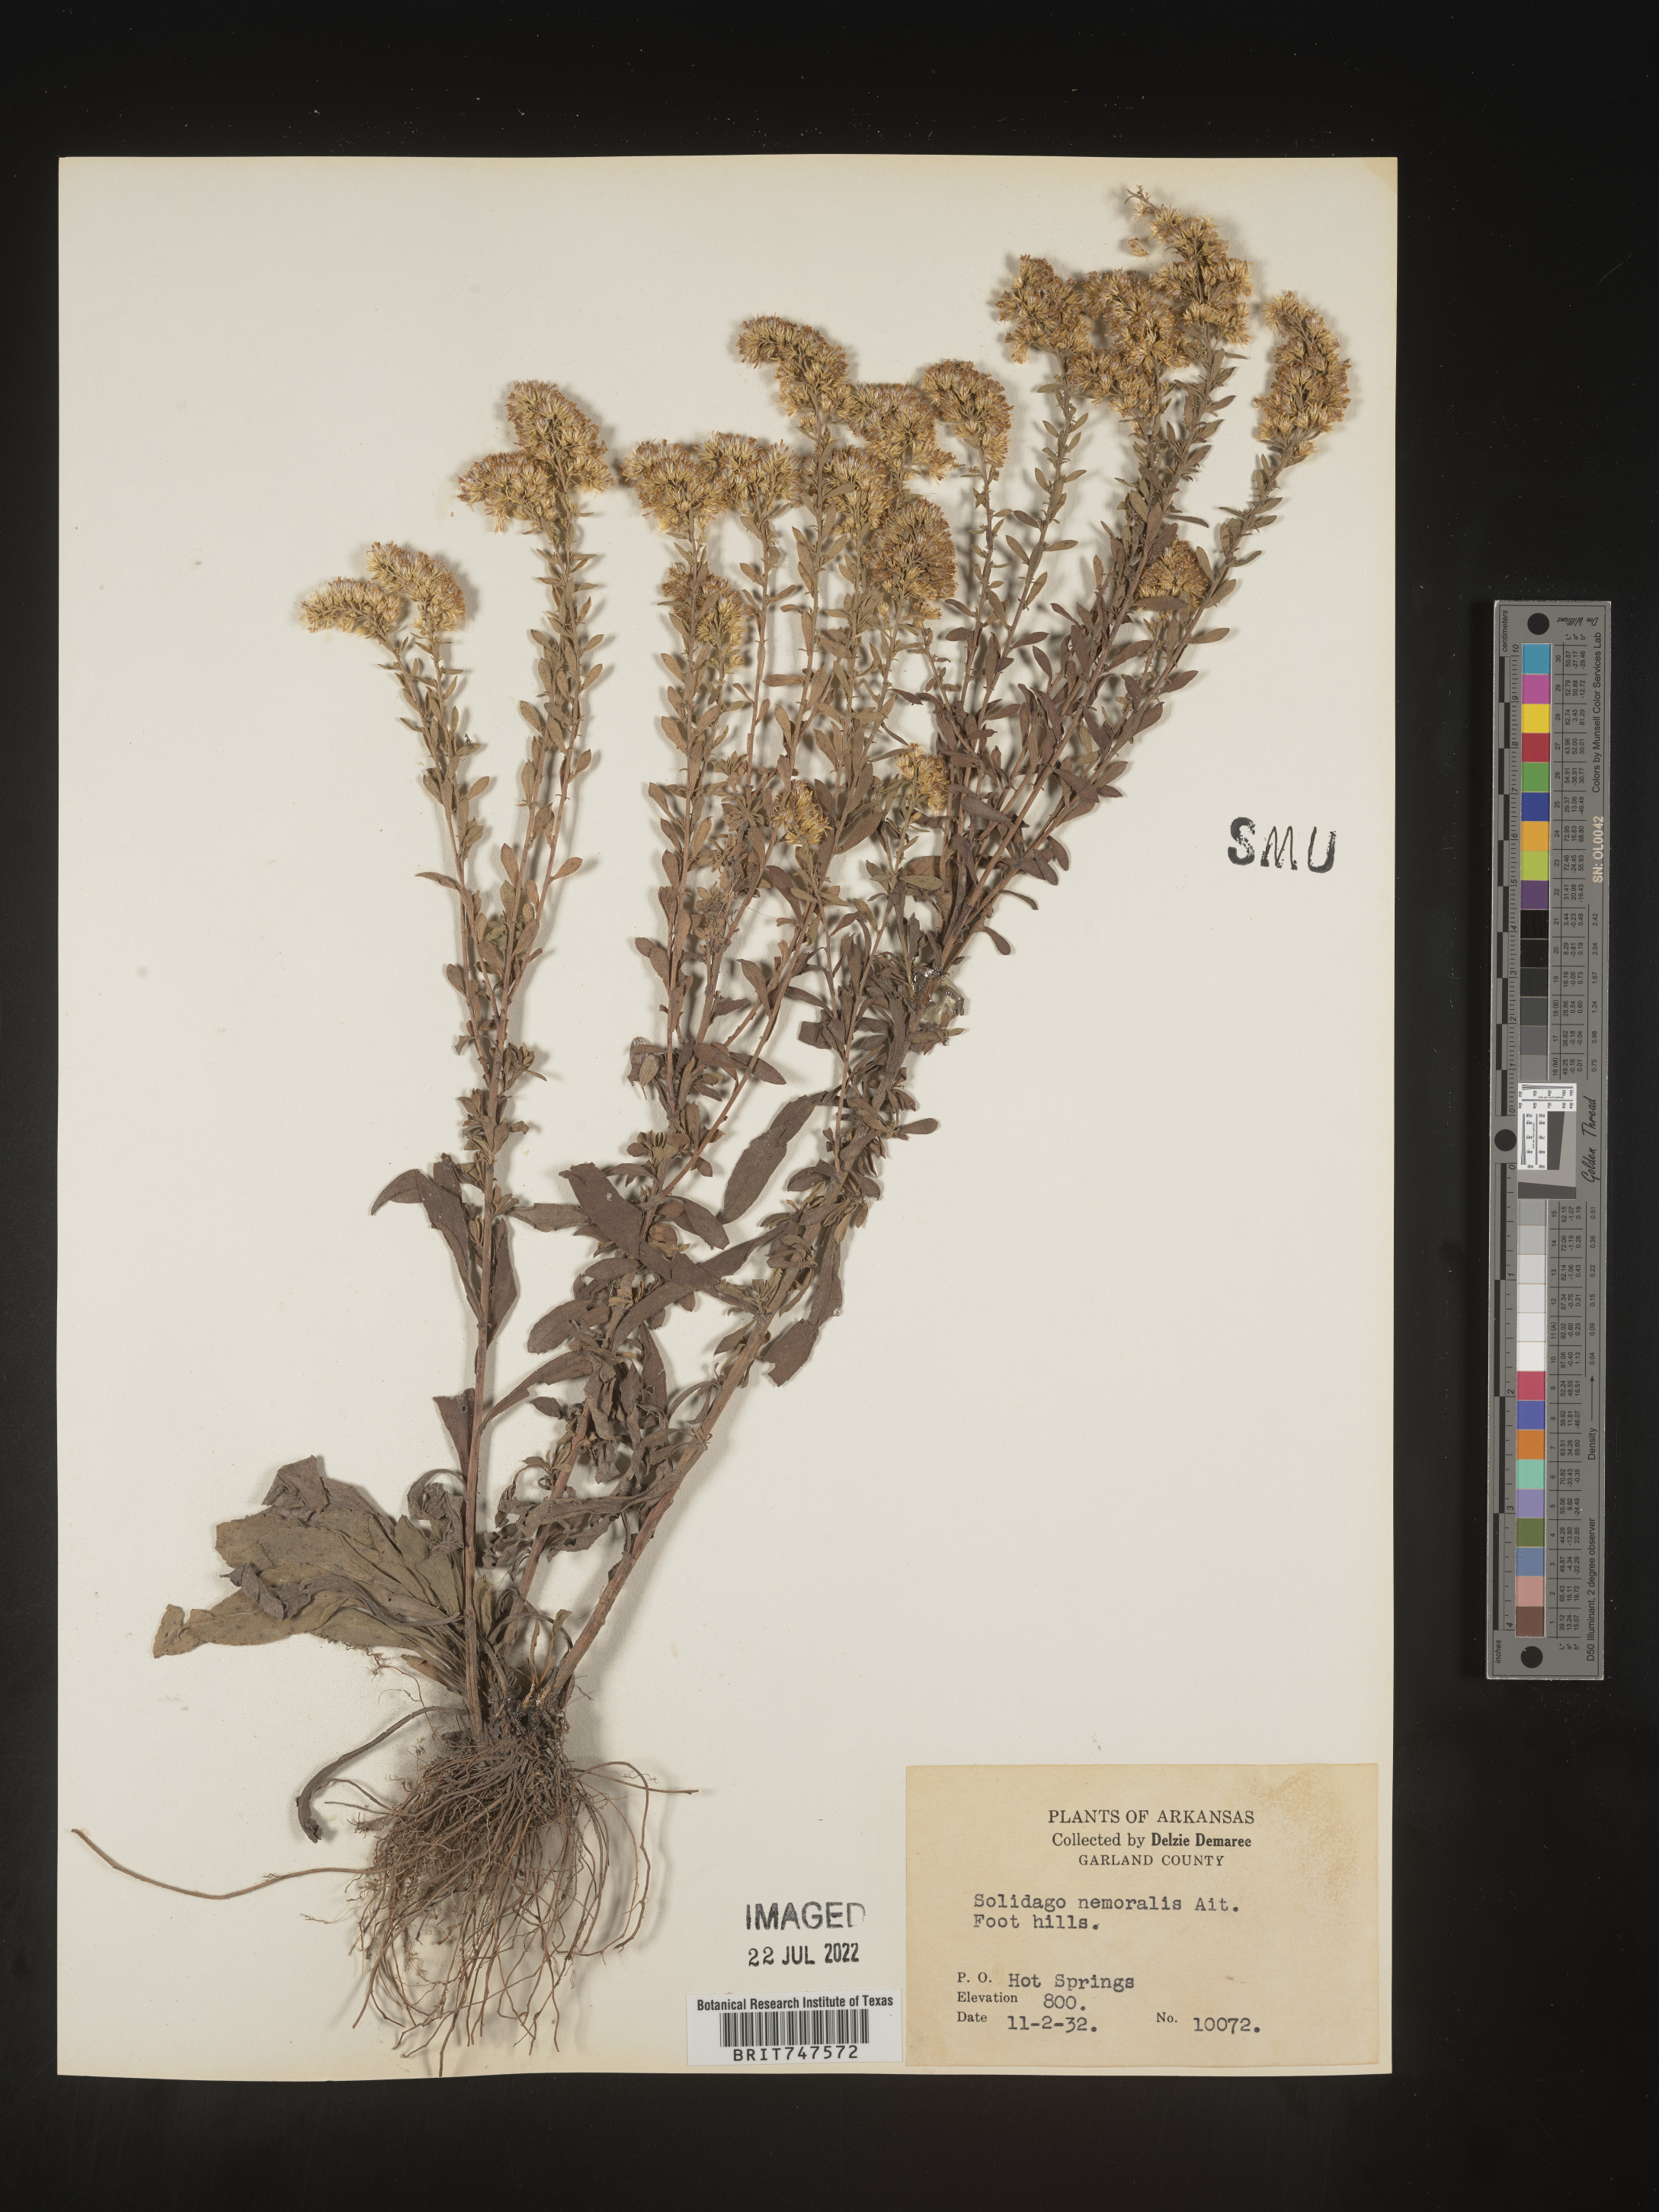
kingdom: Plantae
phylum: Tracheophyta
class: Magnoliopsida
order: Asterales
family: Asteraceae
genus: Solidago
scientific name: Solidago nemoralis
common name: Grey goldenrod
